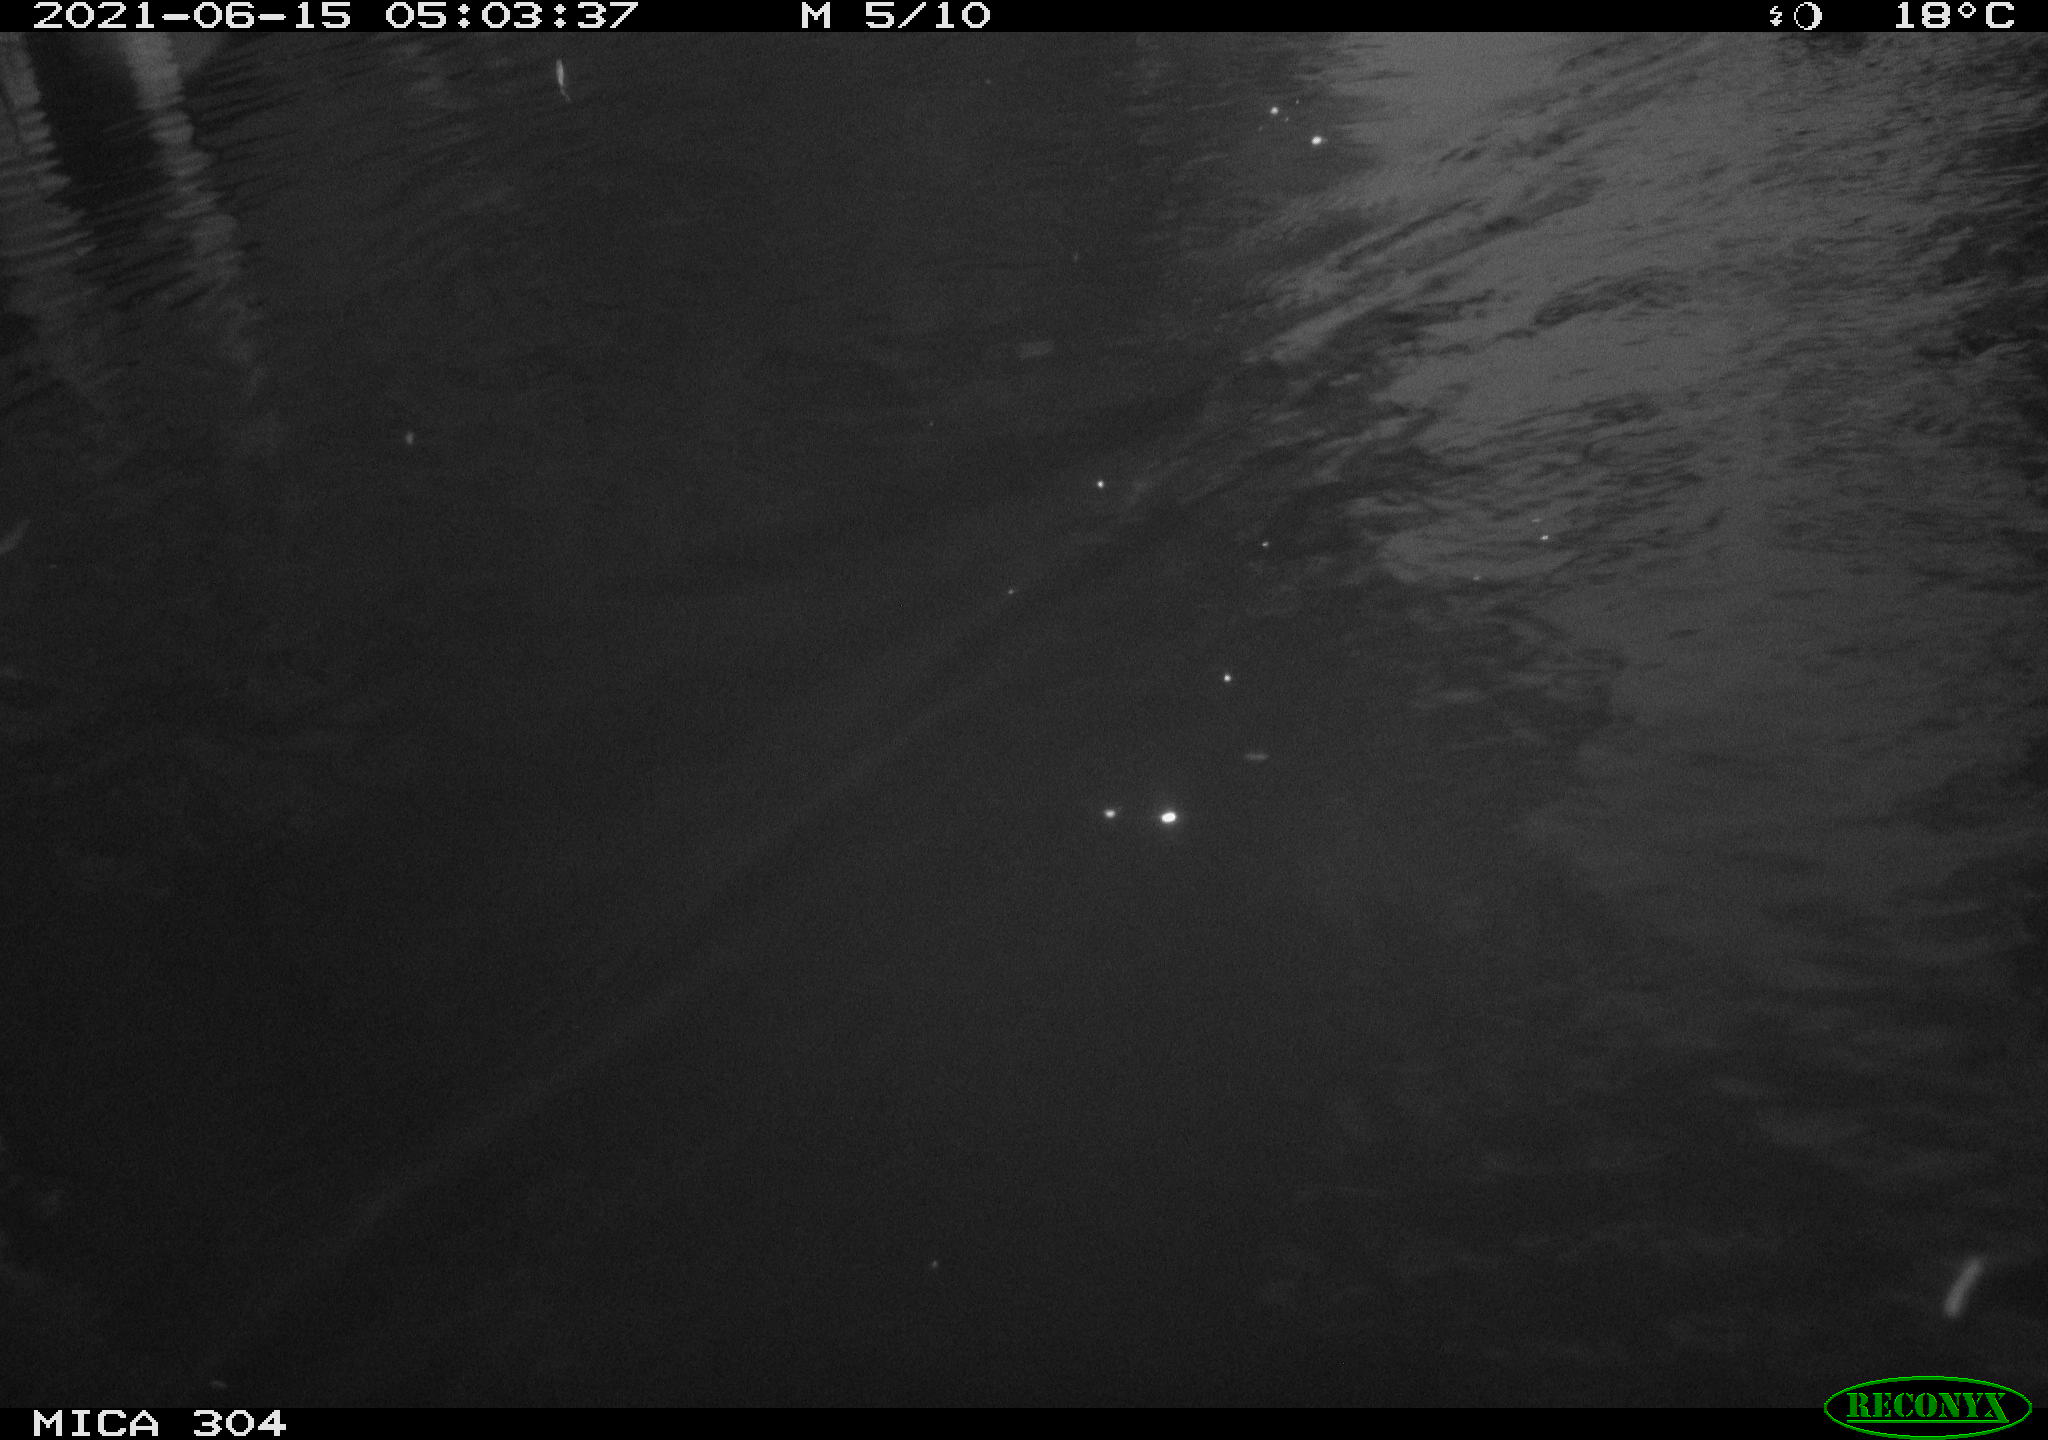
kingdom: Animalia
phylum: Chordata
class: Aves
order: Anseriformes
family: Anatidae
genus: Mareca
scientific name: Mareca strepera
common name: Gadwall
